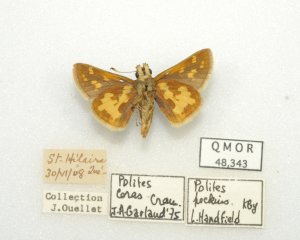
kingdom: Animalia
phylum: Arthropoda
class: Insecta
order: Lepidoptera
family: Hesperiidae
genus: Polites
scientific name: Polites coras
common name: Peck's Skipper
